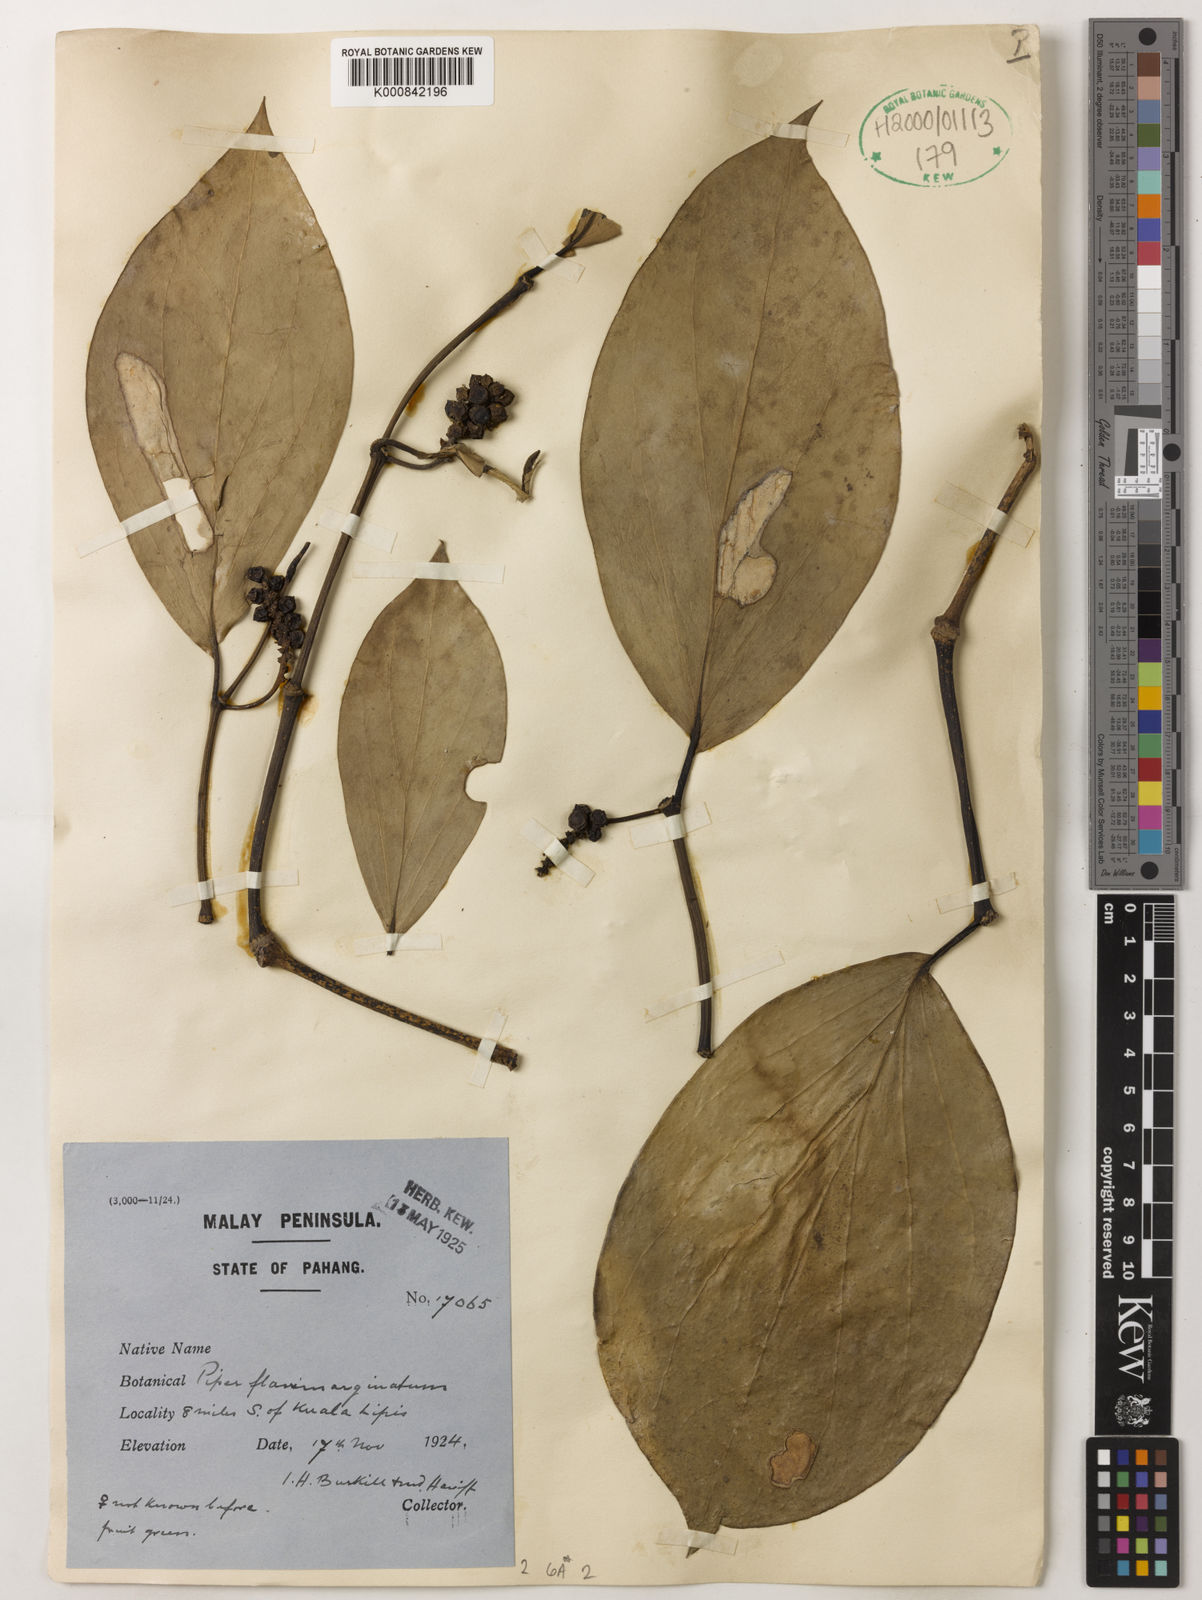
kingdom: Plantae
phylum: Tracheophyta
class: Magnoliopsida
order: Piperales
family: Piperaceae
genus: Piper
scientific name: Piper flavimarginatum
